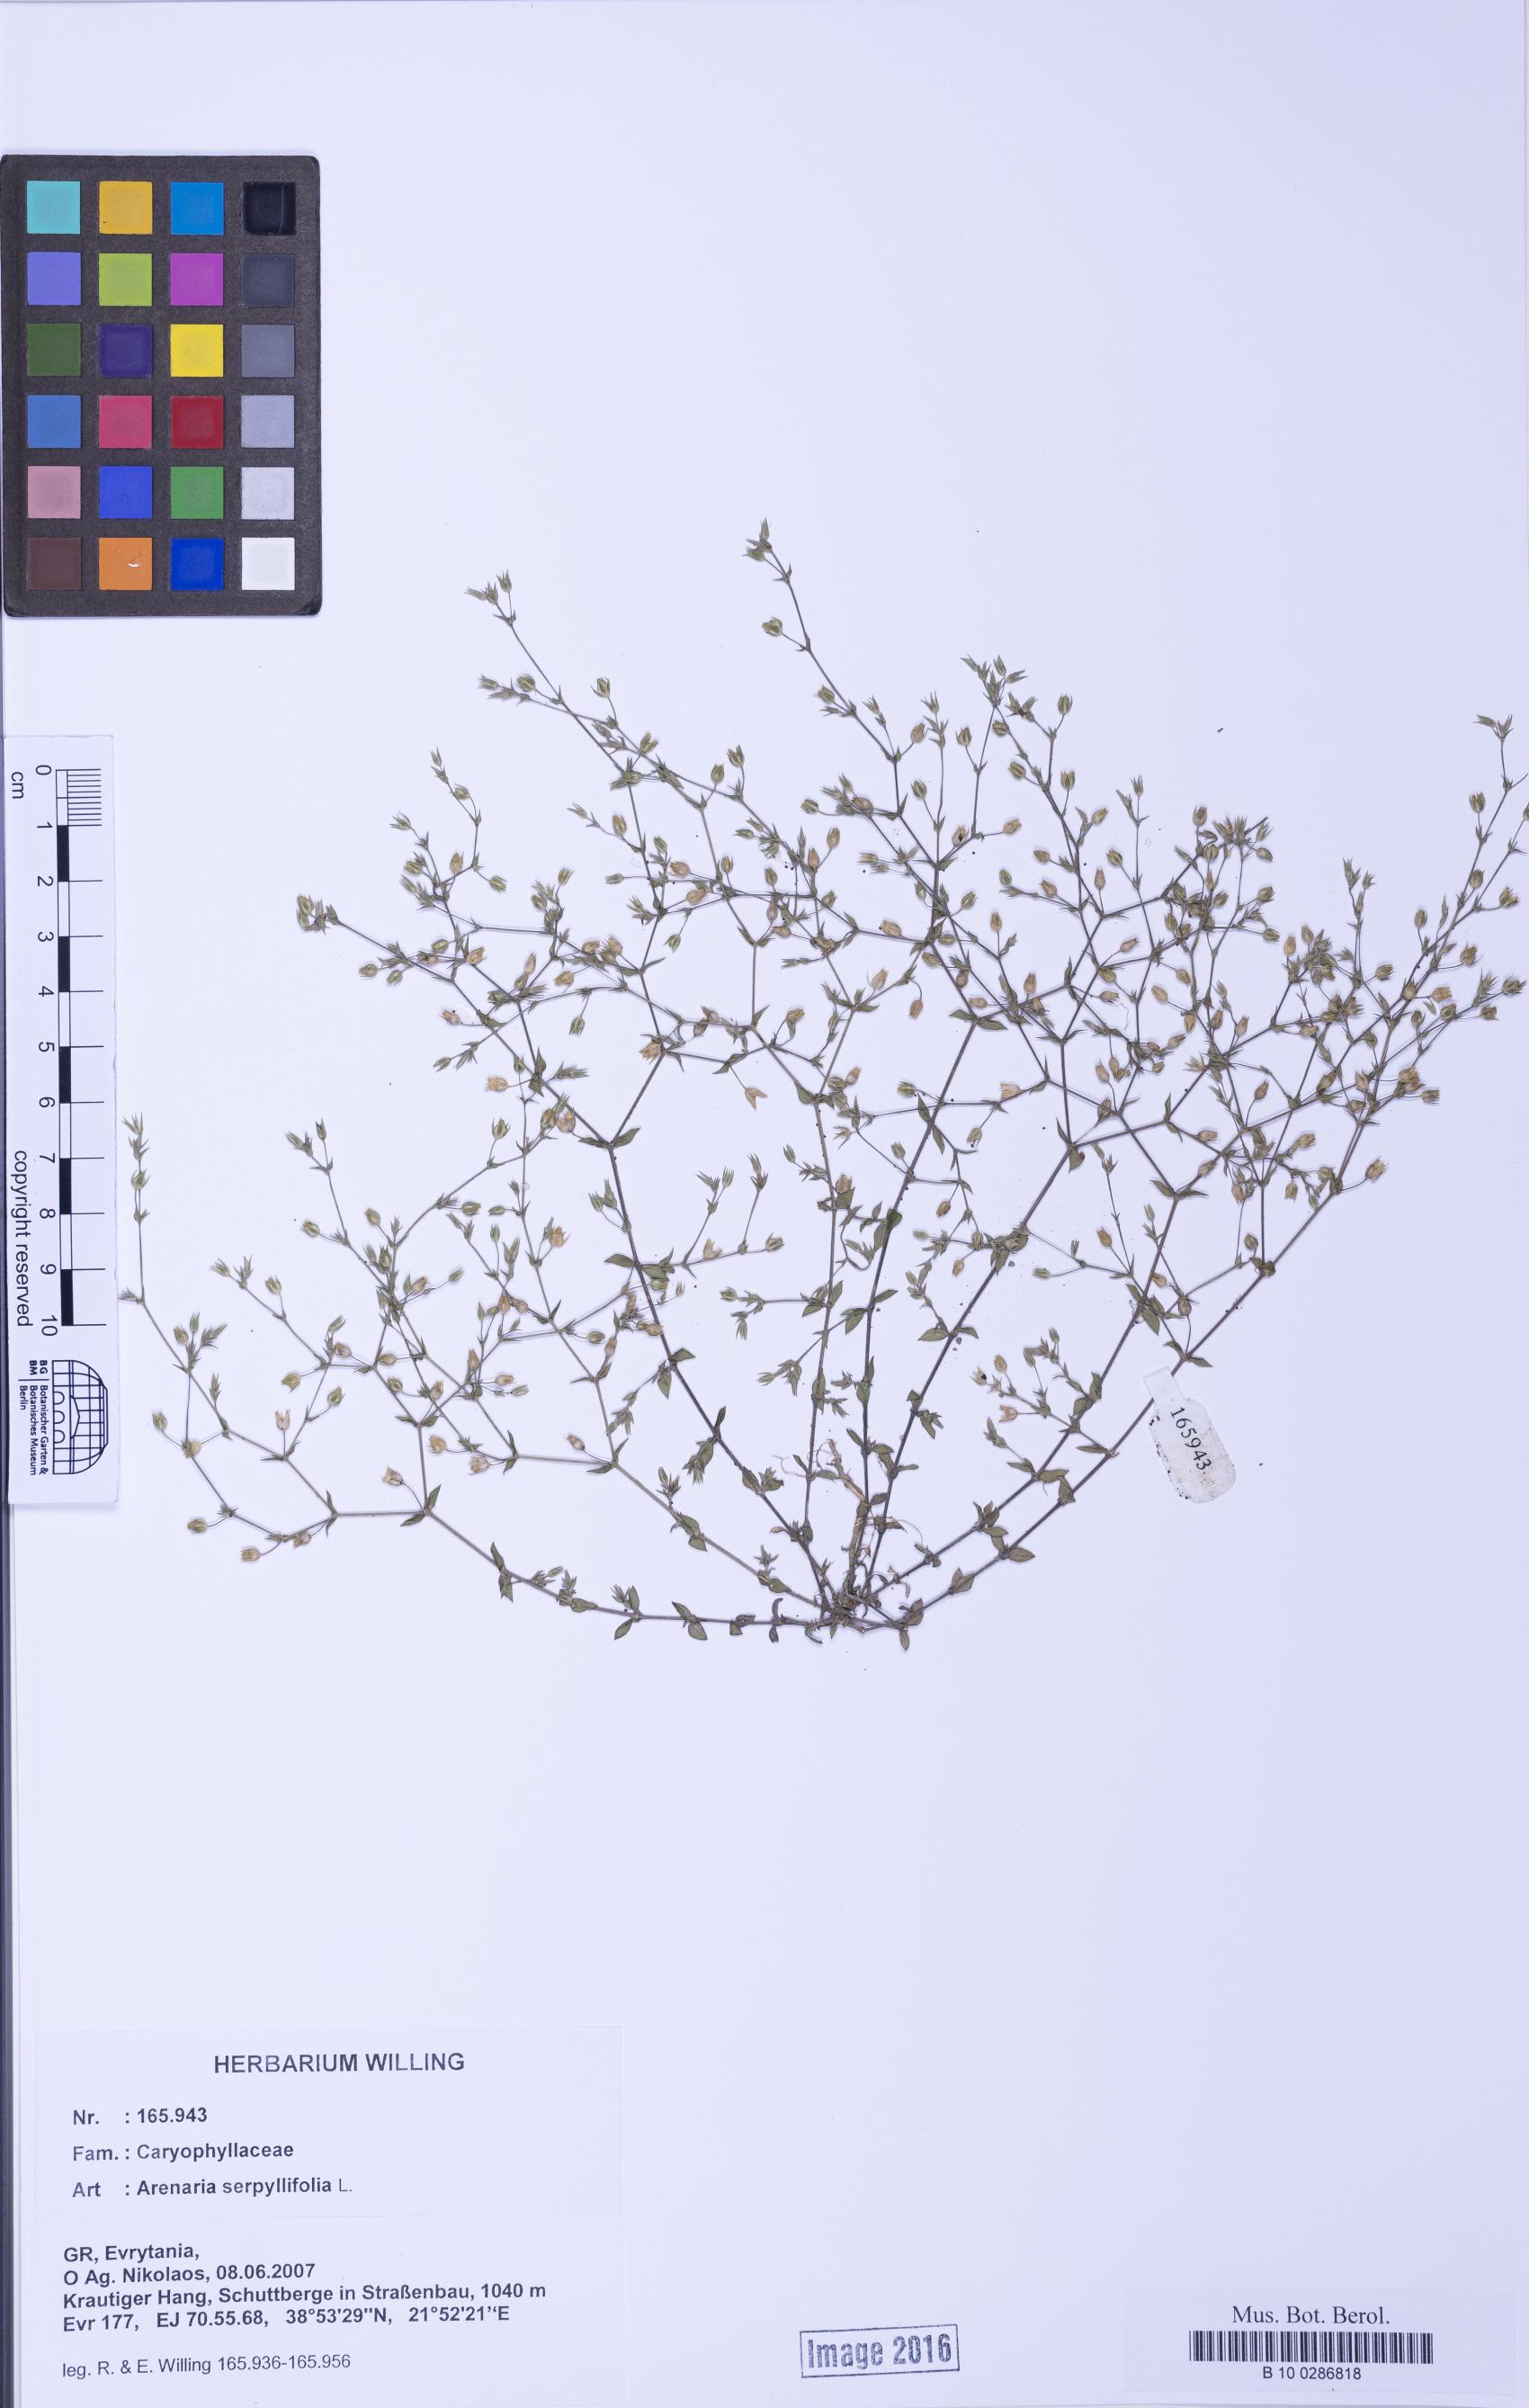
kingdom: Plantae
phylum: Tracheophyta
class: Magnoliopsida
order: Caryophyllales
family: Caryophyllaceae
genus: Arenaria
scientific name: Arenaria serpyllifolia
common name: Thyme-leaved sandwort
